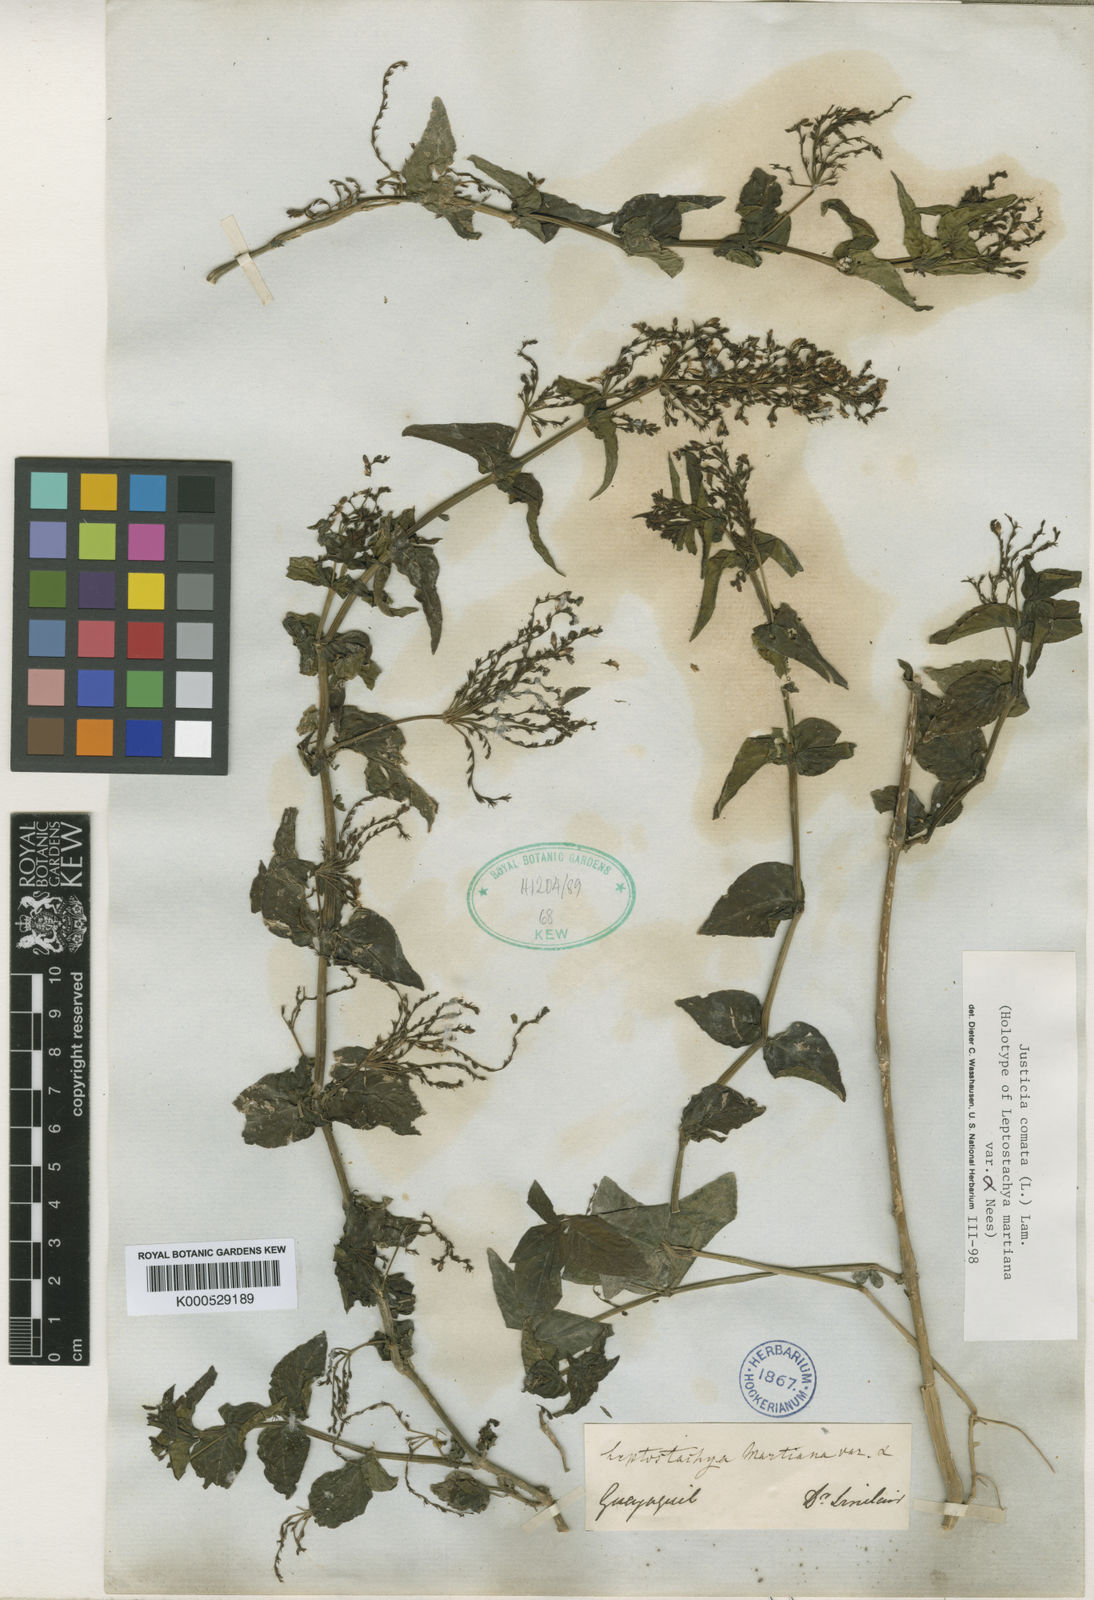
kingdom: Plantae
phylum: Tracheophyta
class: Magnoliopsida
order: Lamiales
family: Acanthaceae
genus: Dianthera
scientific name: Dianthera comata
